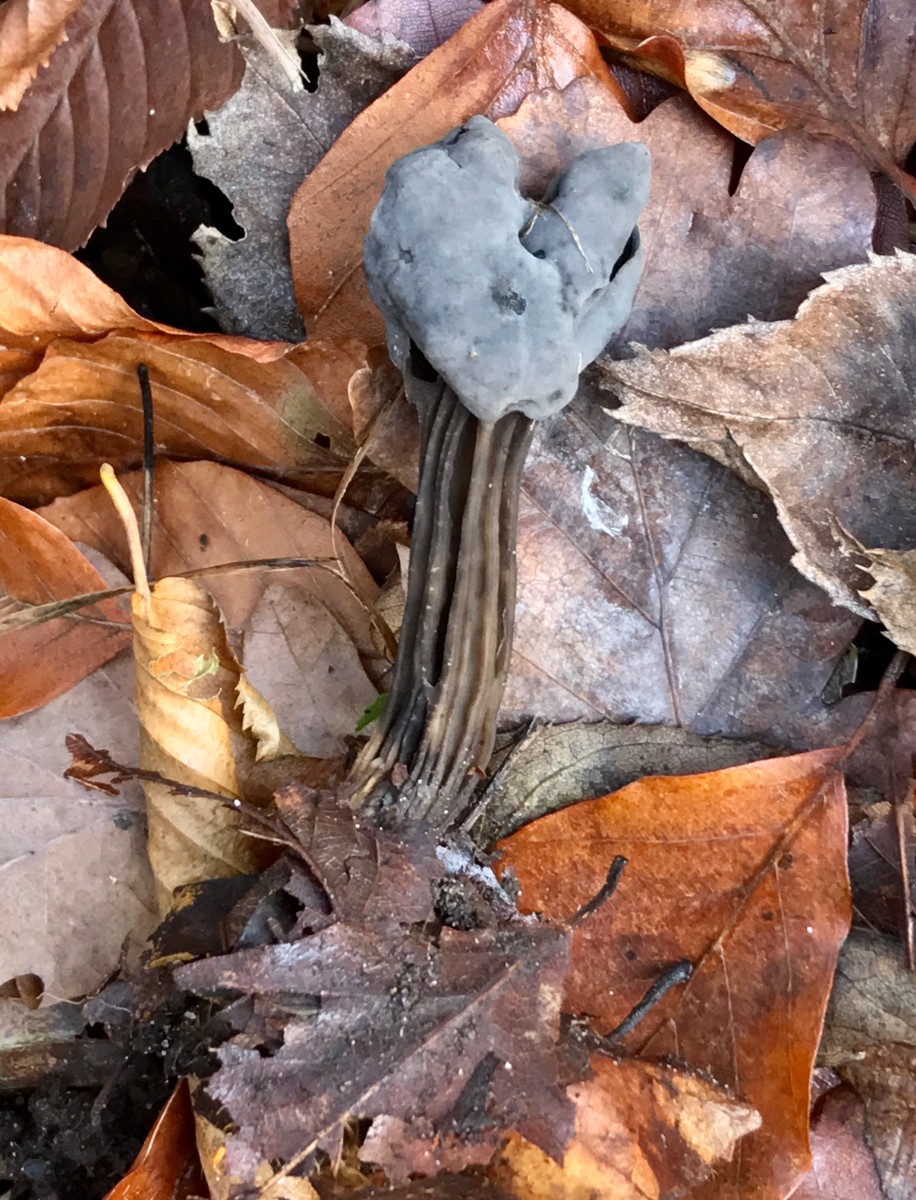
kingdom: Fungi
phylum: Ascomycota
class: Pezizomycetes
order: Pezizales
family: Helvellaceae
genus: Helvella
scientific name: Helvella lacunosa
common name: grubet foldhat
